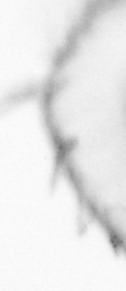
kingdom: Animalia
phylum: Annelida
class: Polychaeta
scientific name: Polychaeta
